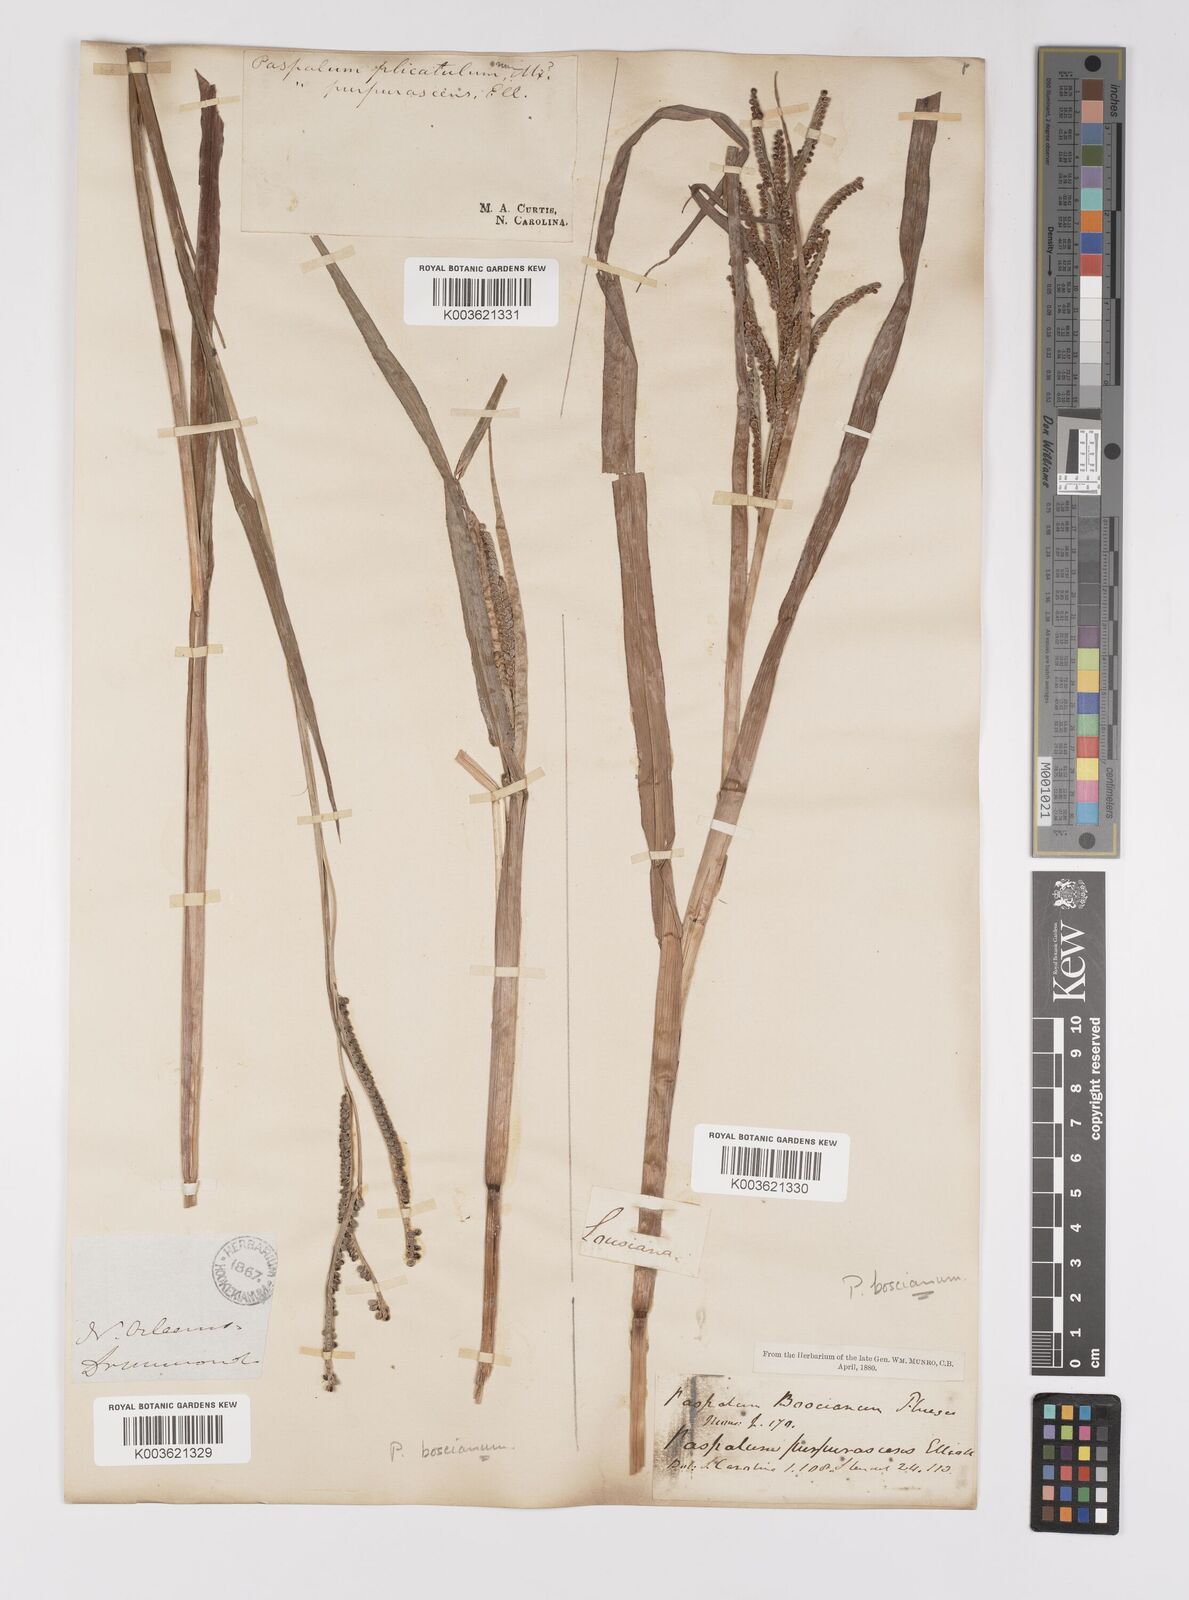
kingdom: Plantae
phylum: Tracheophyta
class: Liliopsida
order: Poales
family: Poaceae
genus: Paspalum
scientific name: Paspalum scrobiculatum
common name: Kodo millet
